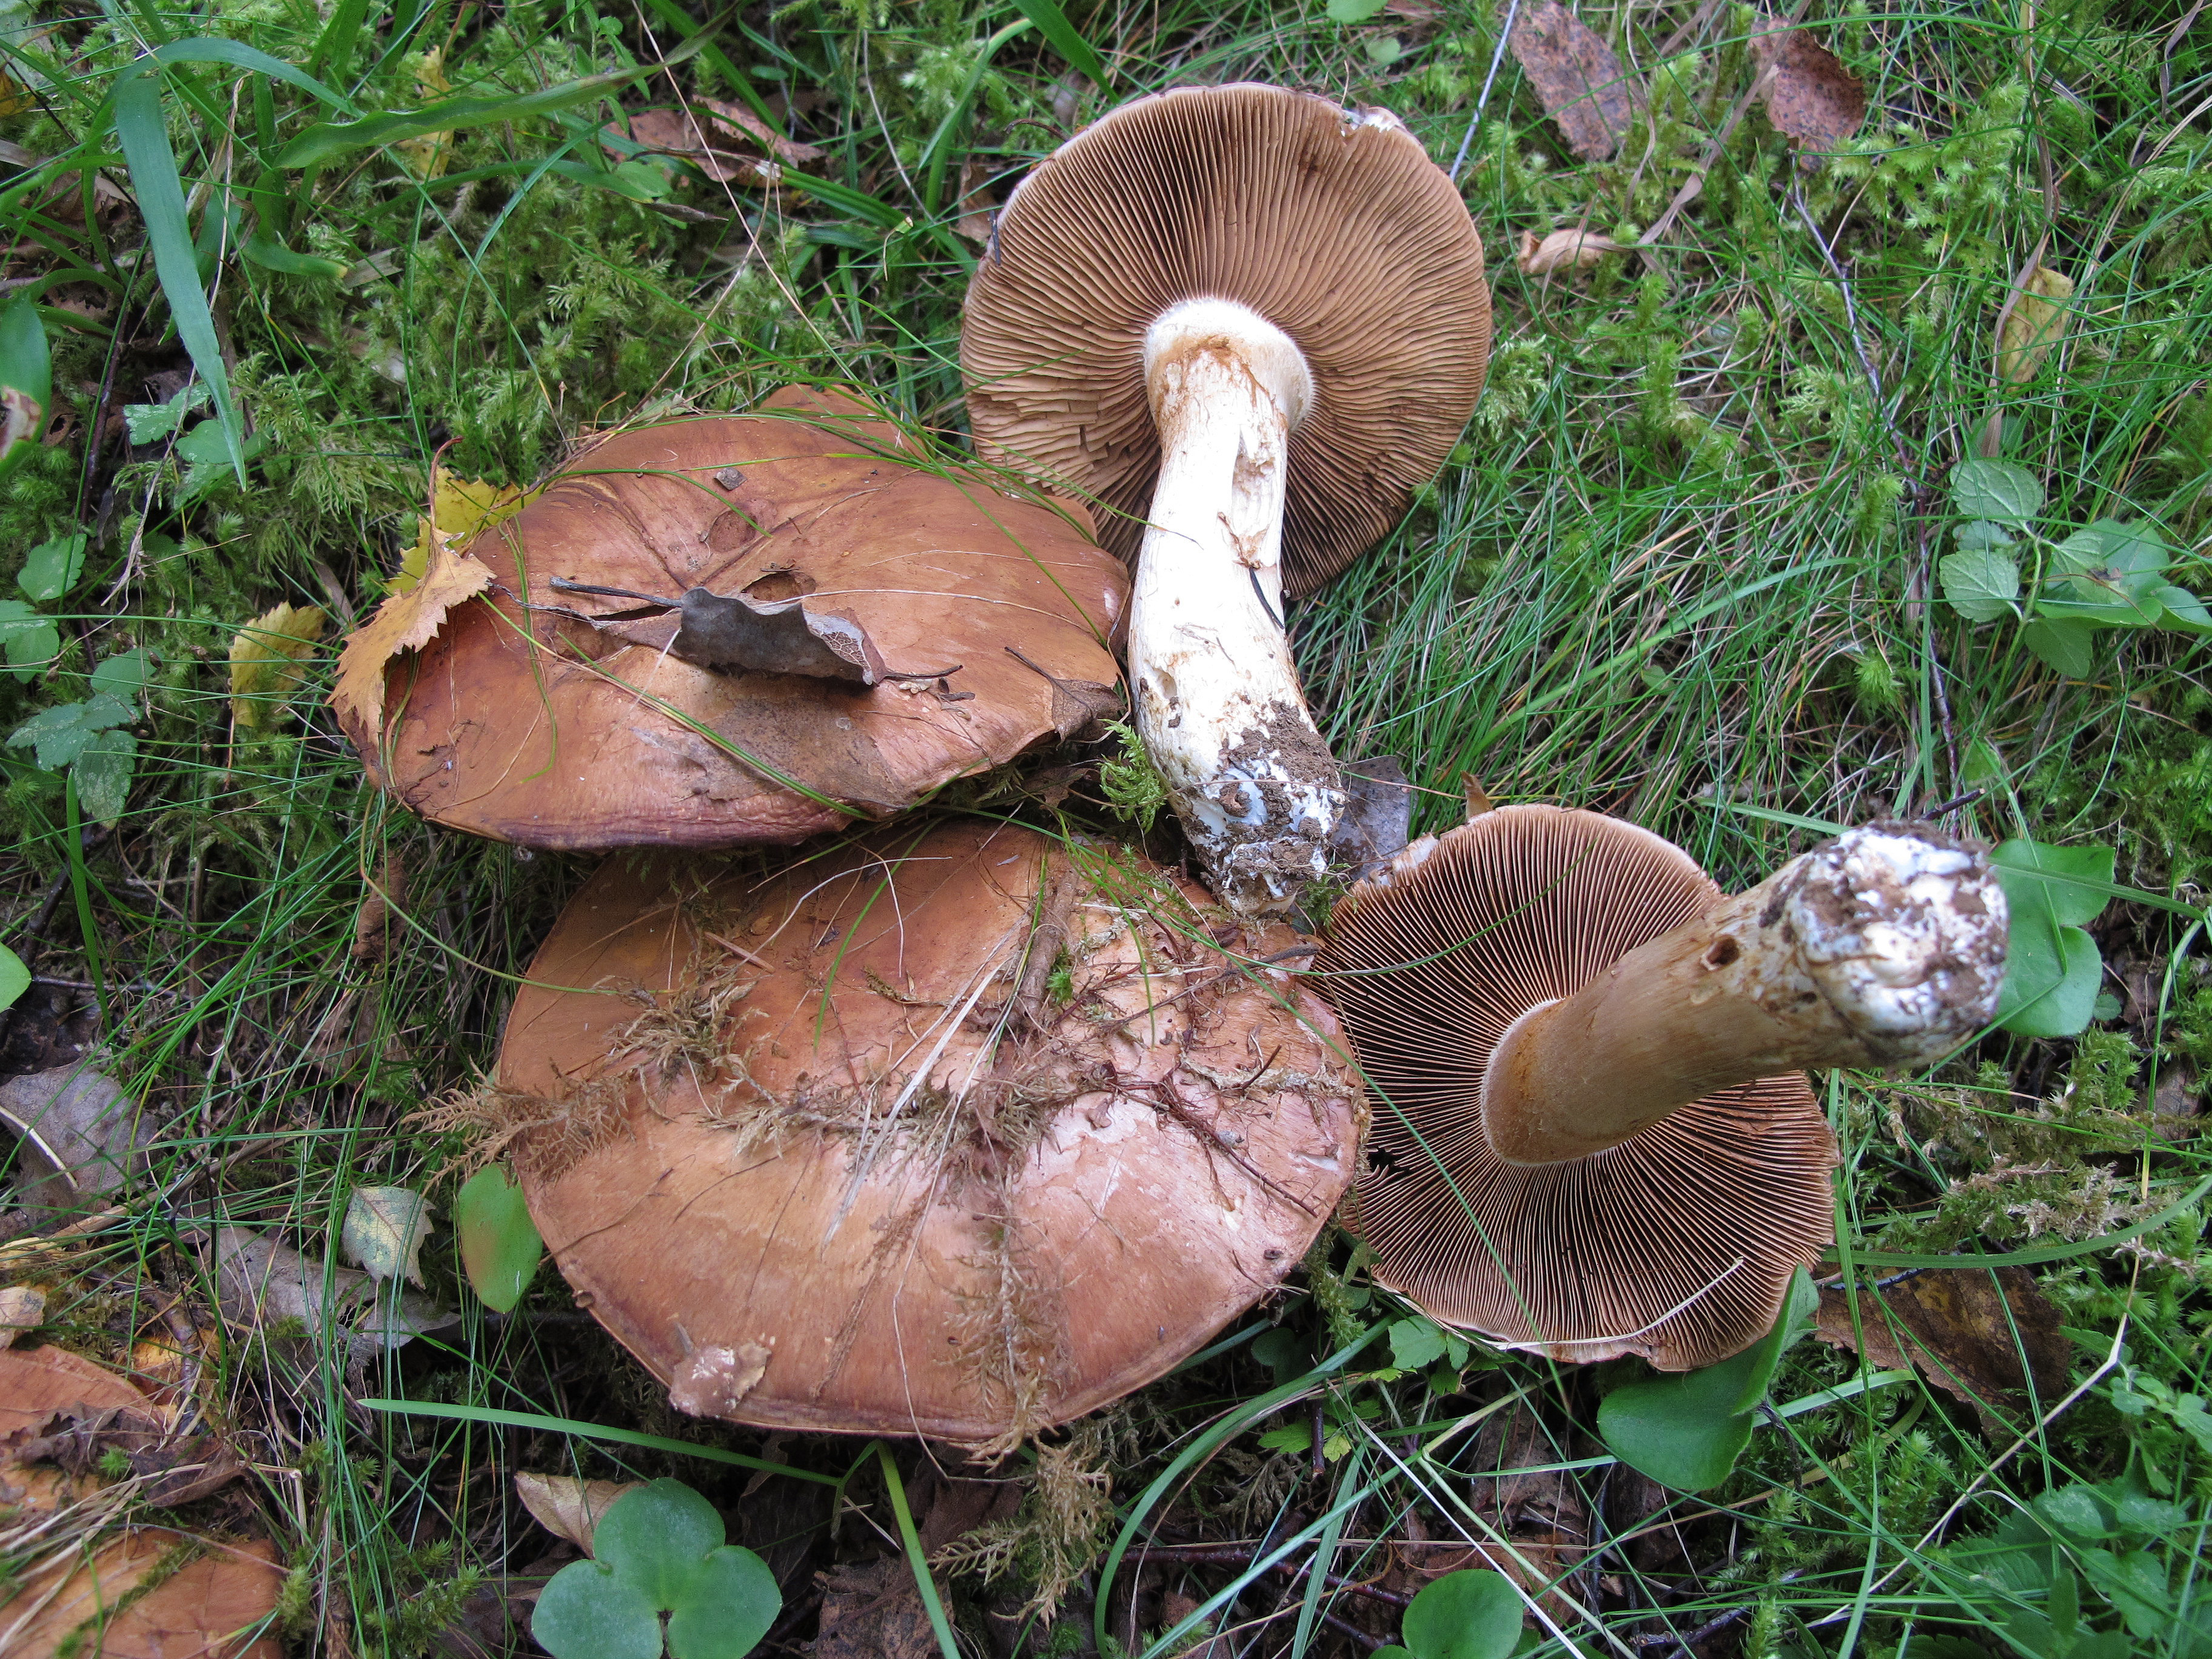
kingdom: Fungi
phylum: Basidiomycota
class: Agaricomycetes
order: Agaricales
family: Cortinariaceae
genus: Cortinarius
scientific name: Cortinarius variecolor
